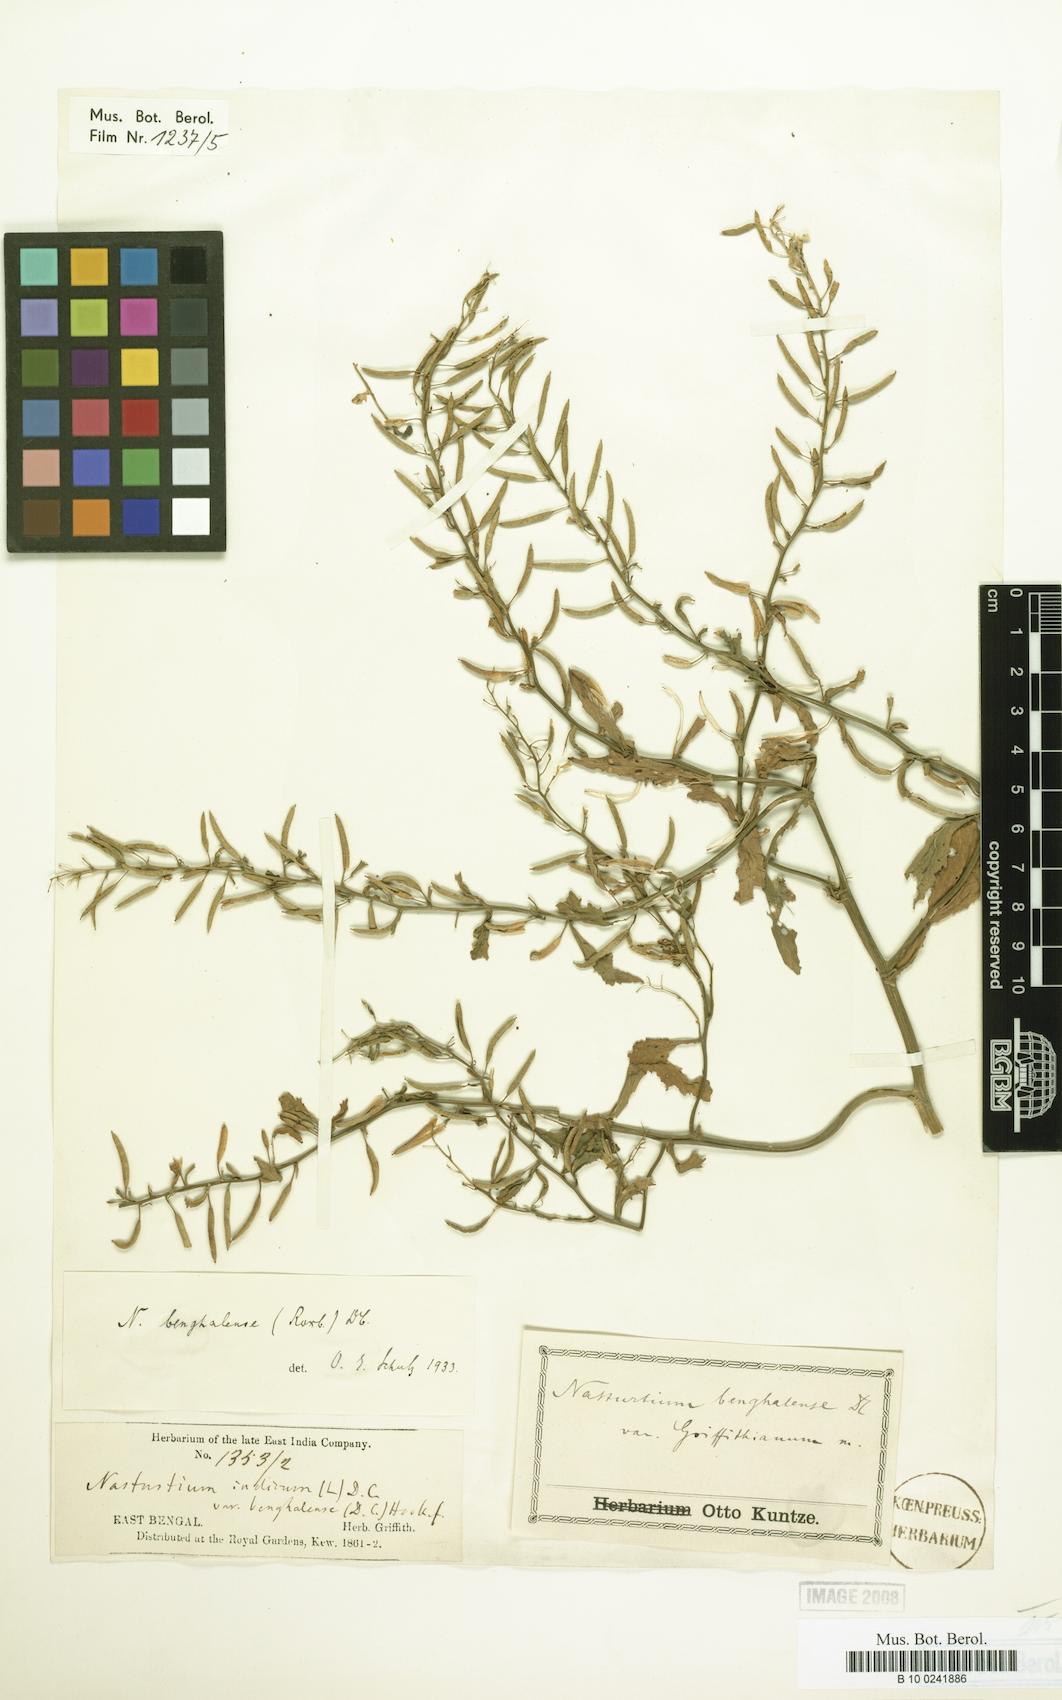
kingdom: Plantae
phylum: Tracheophyta
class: Magnoliopsida
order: Brassicales
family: Brassicaceae
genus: Rorippa
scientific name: Rorippa benghalensis
